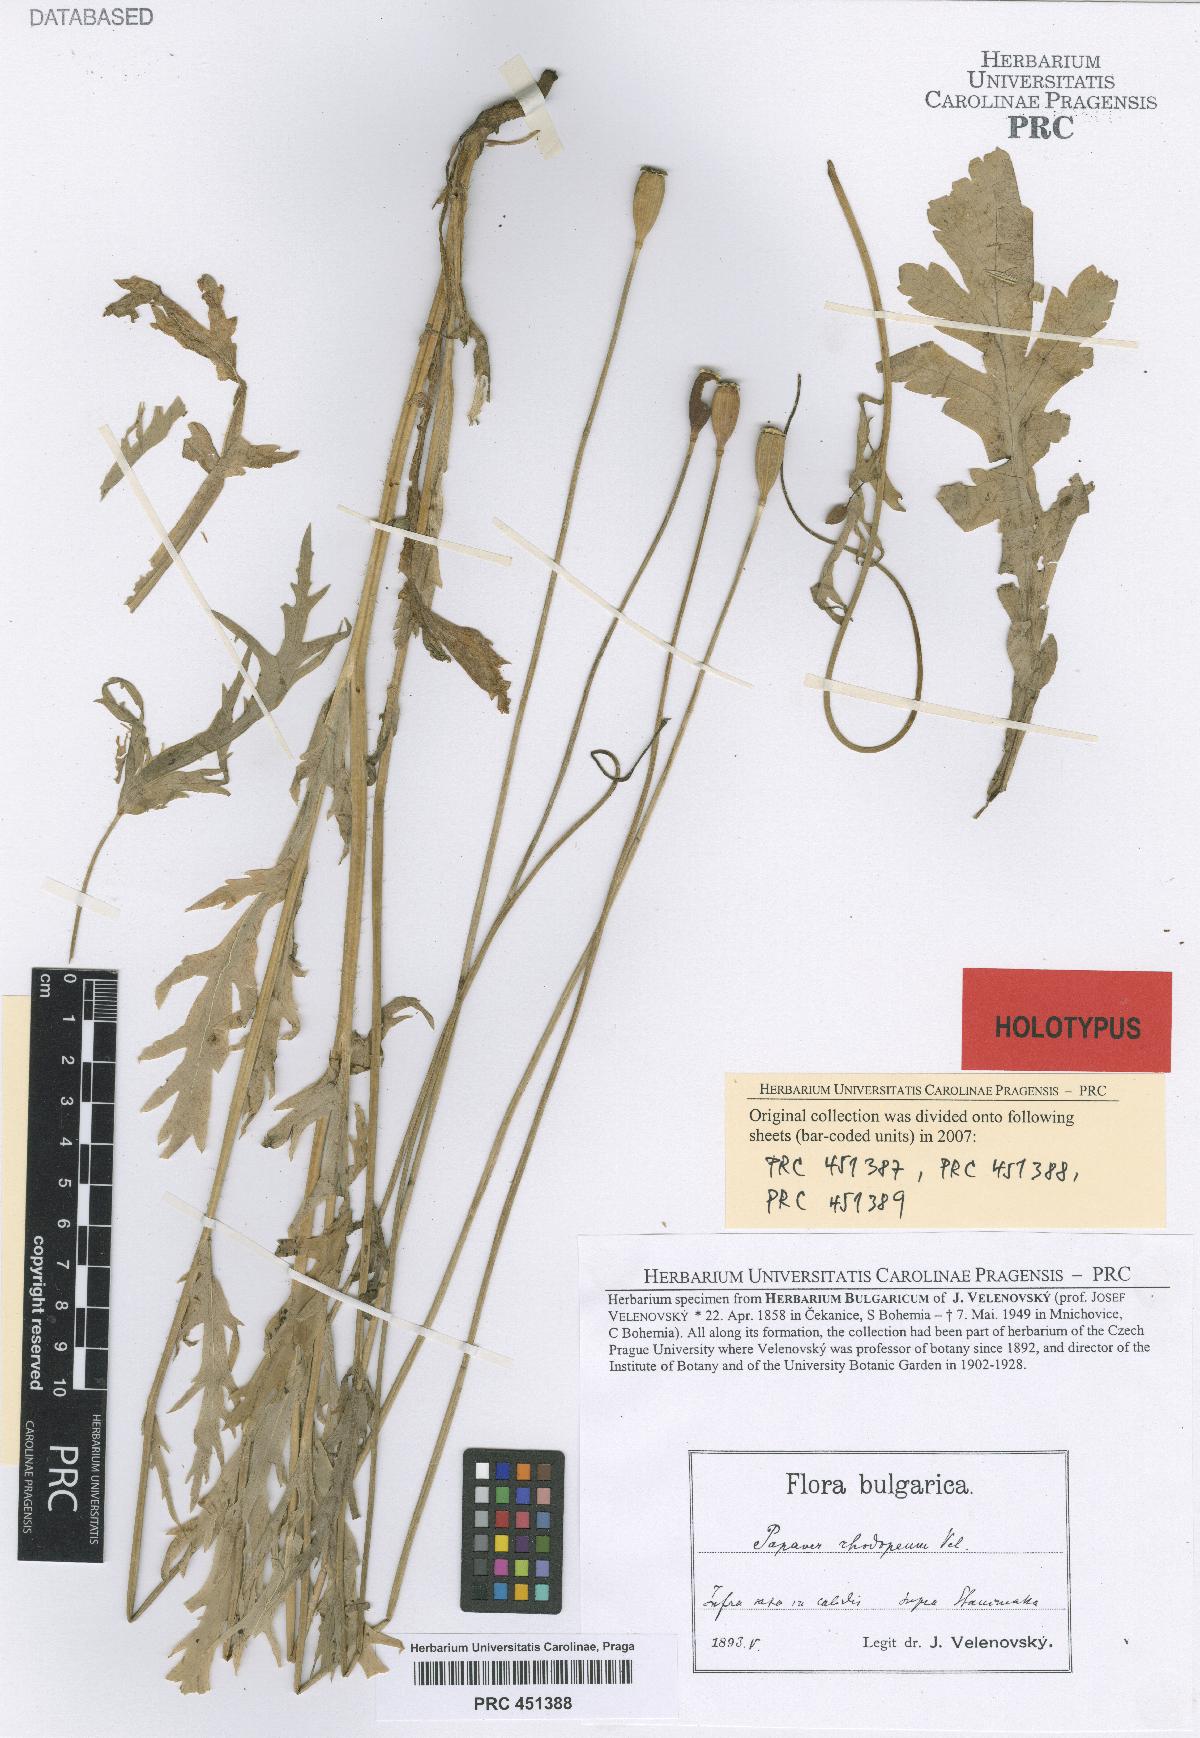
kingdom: Plantae
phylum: Tracheophyta
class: Magnoliopsida
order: Ranunculales
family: Papaveraceae
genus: Papaver
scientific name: Papaver laevigatum
